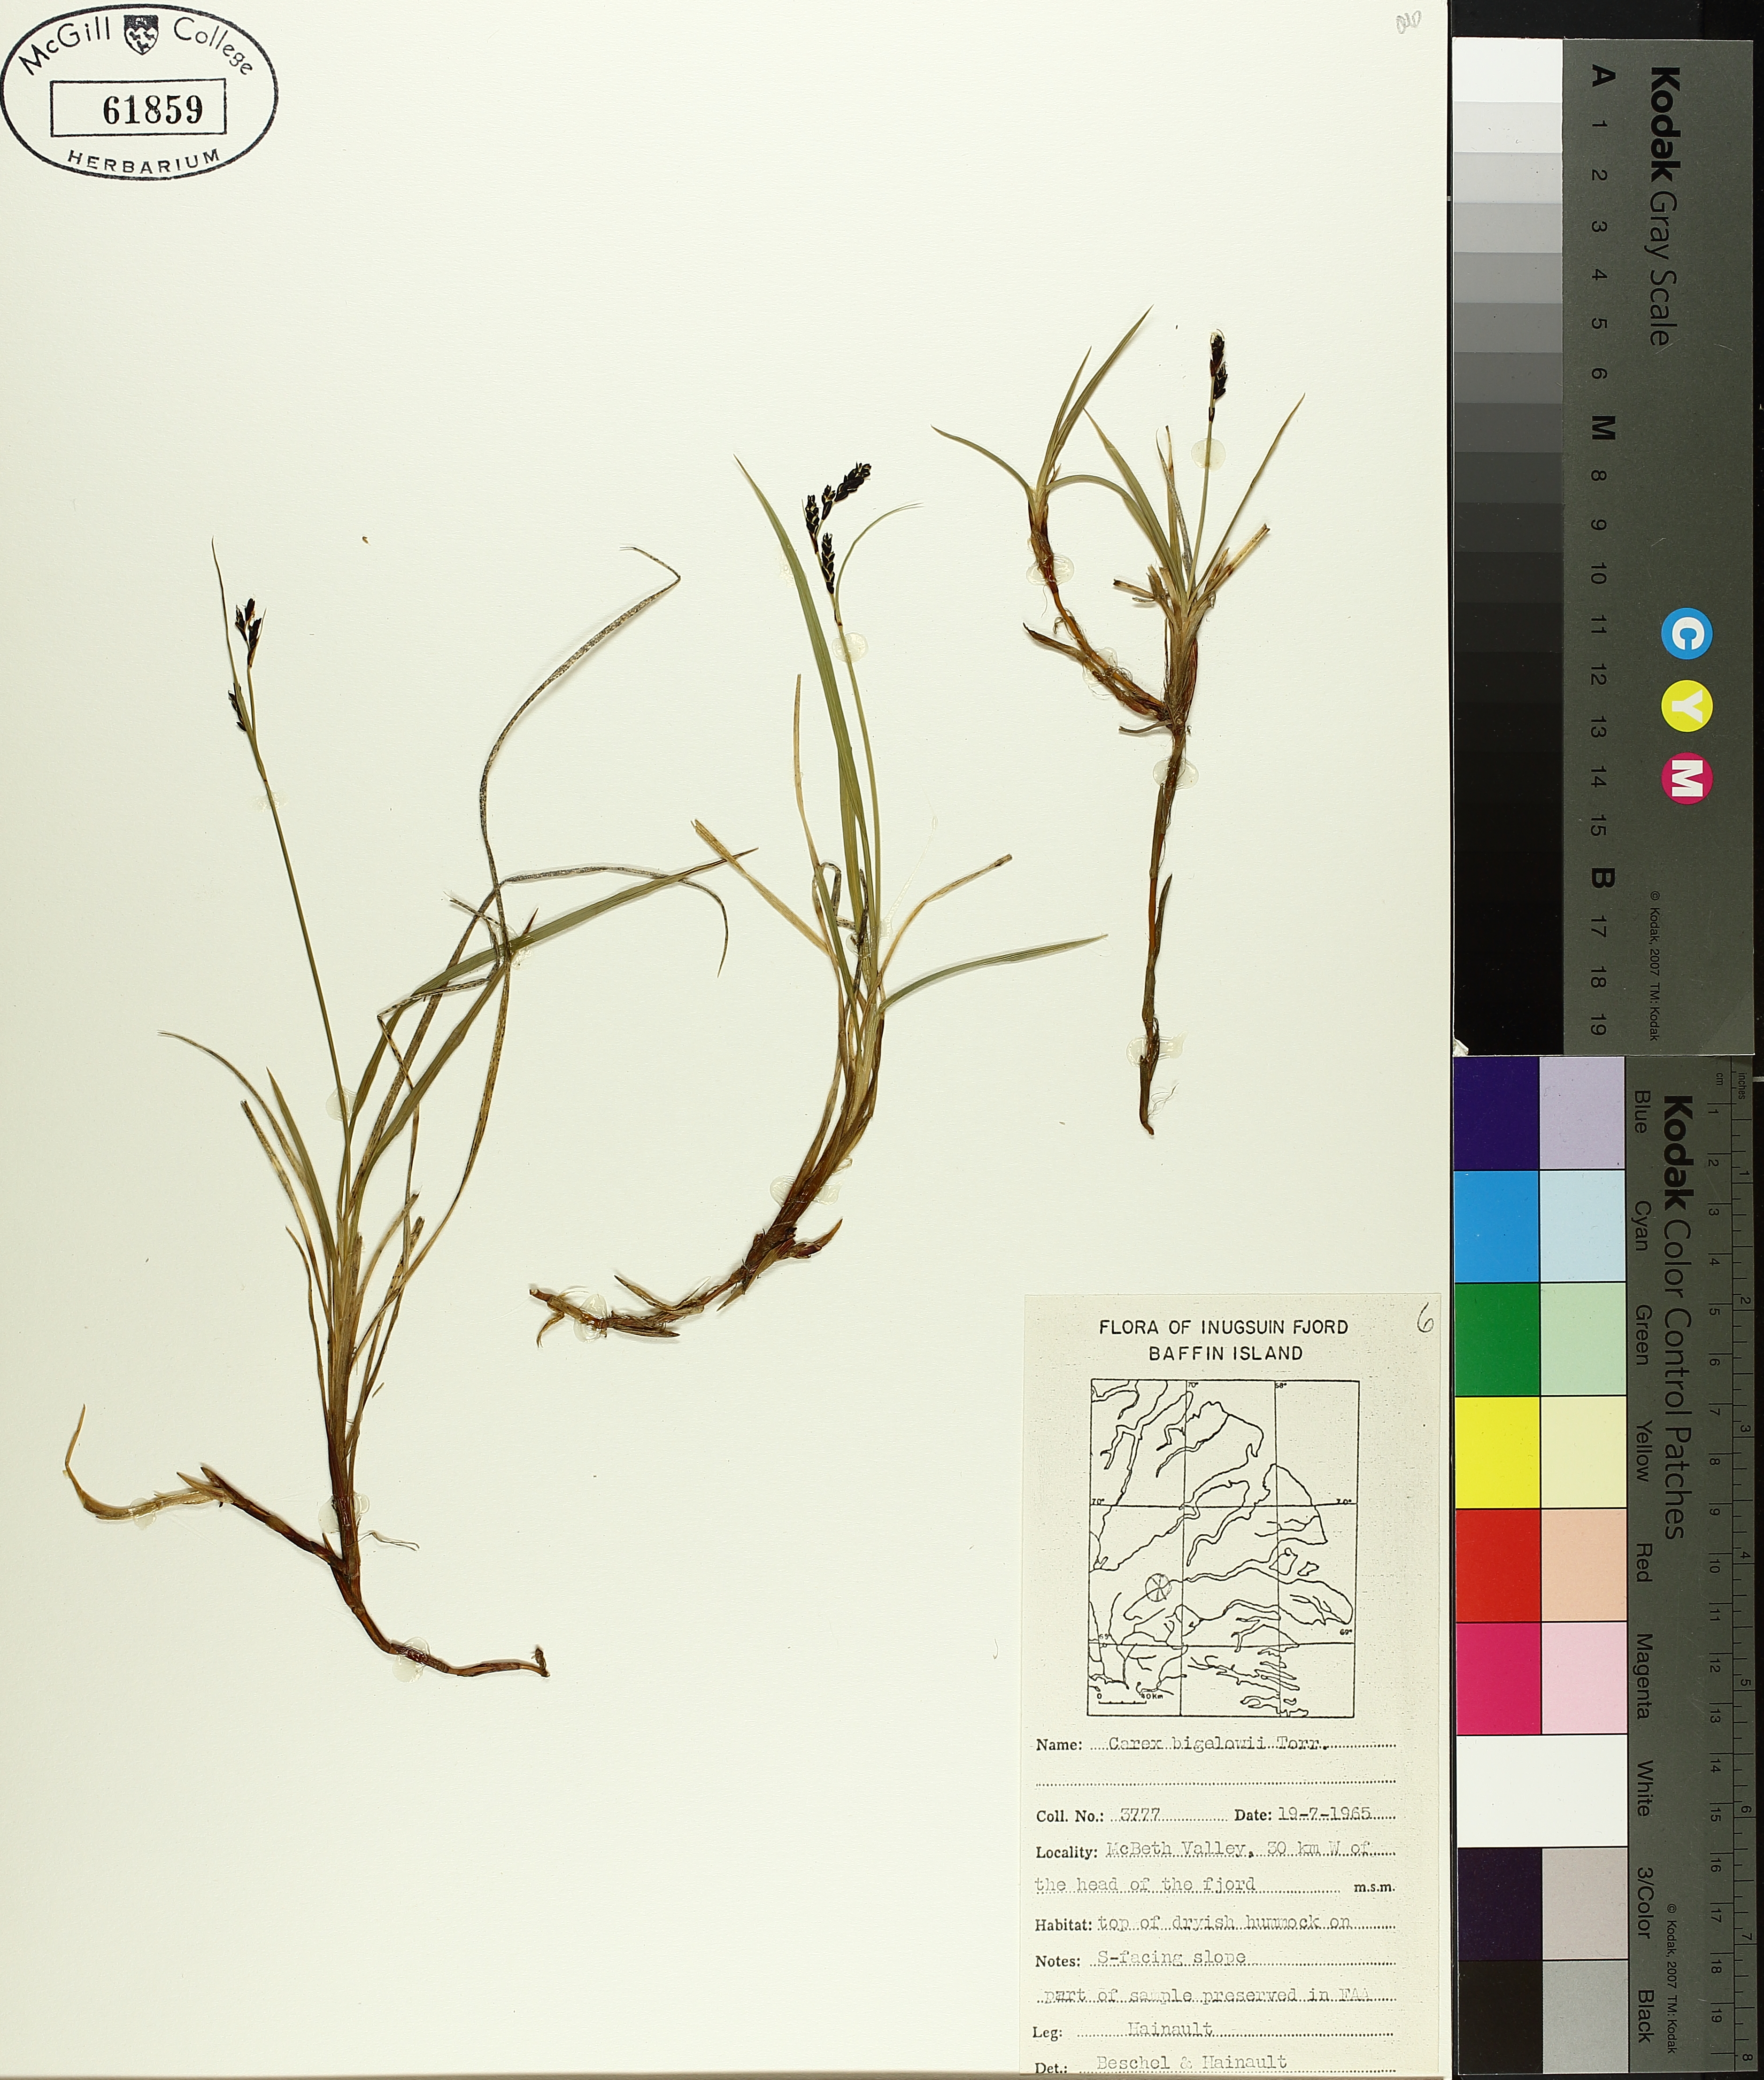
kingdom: Plantae
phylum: Tracheophyta
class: Liliopsida
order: Poales
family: Cyperaceae
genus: Carex
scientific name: Carex bigelowii
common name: Stiff sedge
